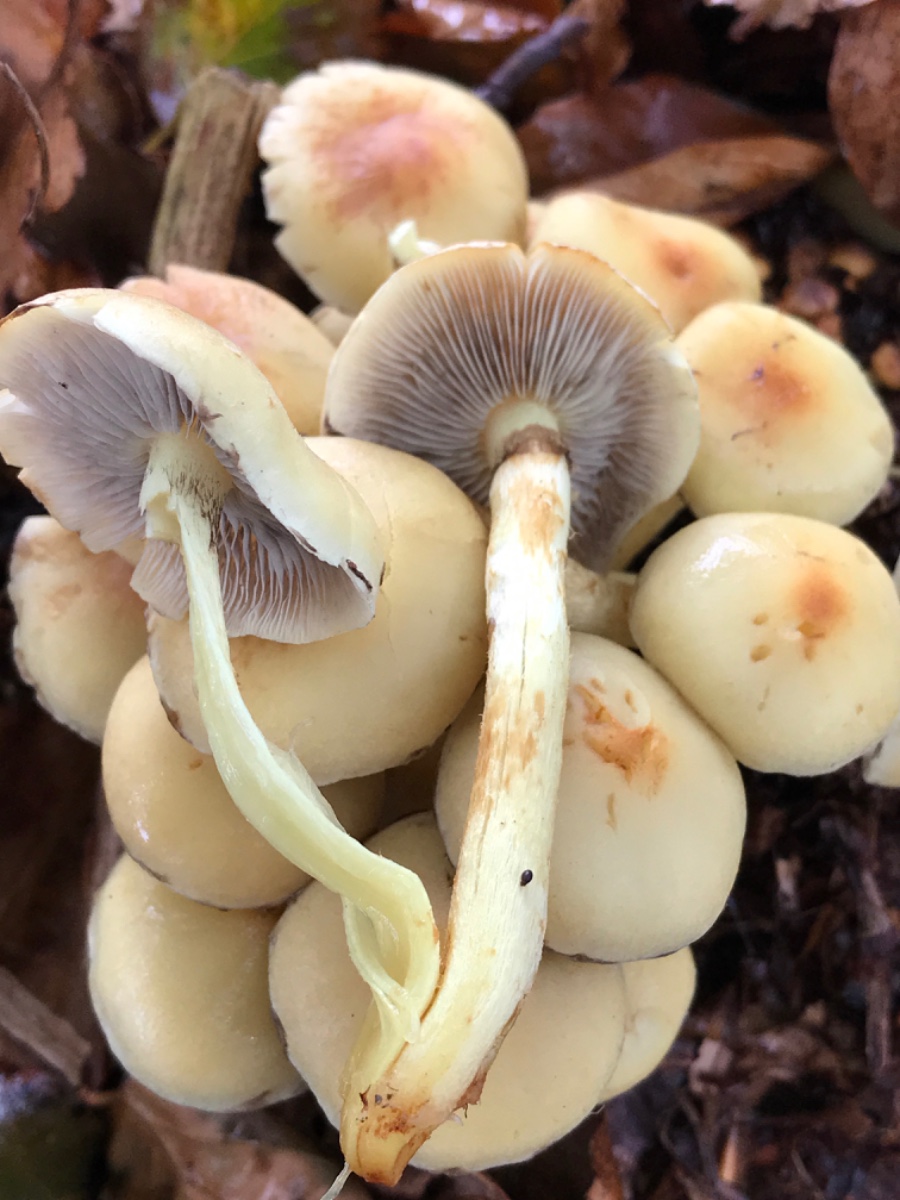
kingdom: Fungi
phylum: Basidiomycota
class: Agaricomycetes
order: Agaricales
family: Strophariaceae
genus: Hypholoma
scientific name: Hypholoma fasciculare
